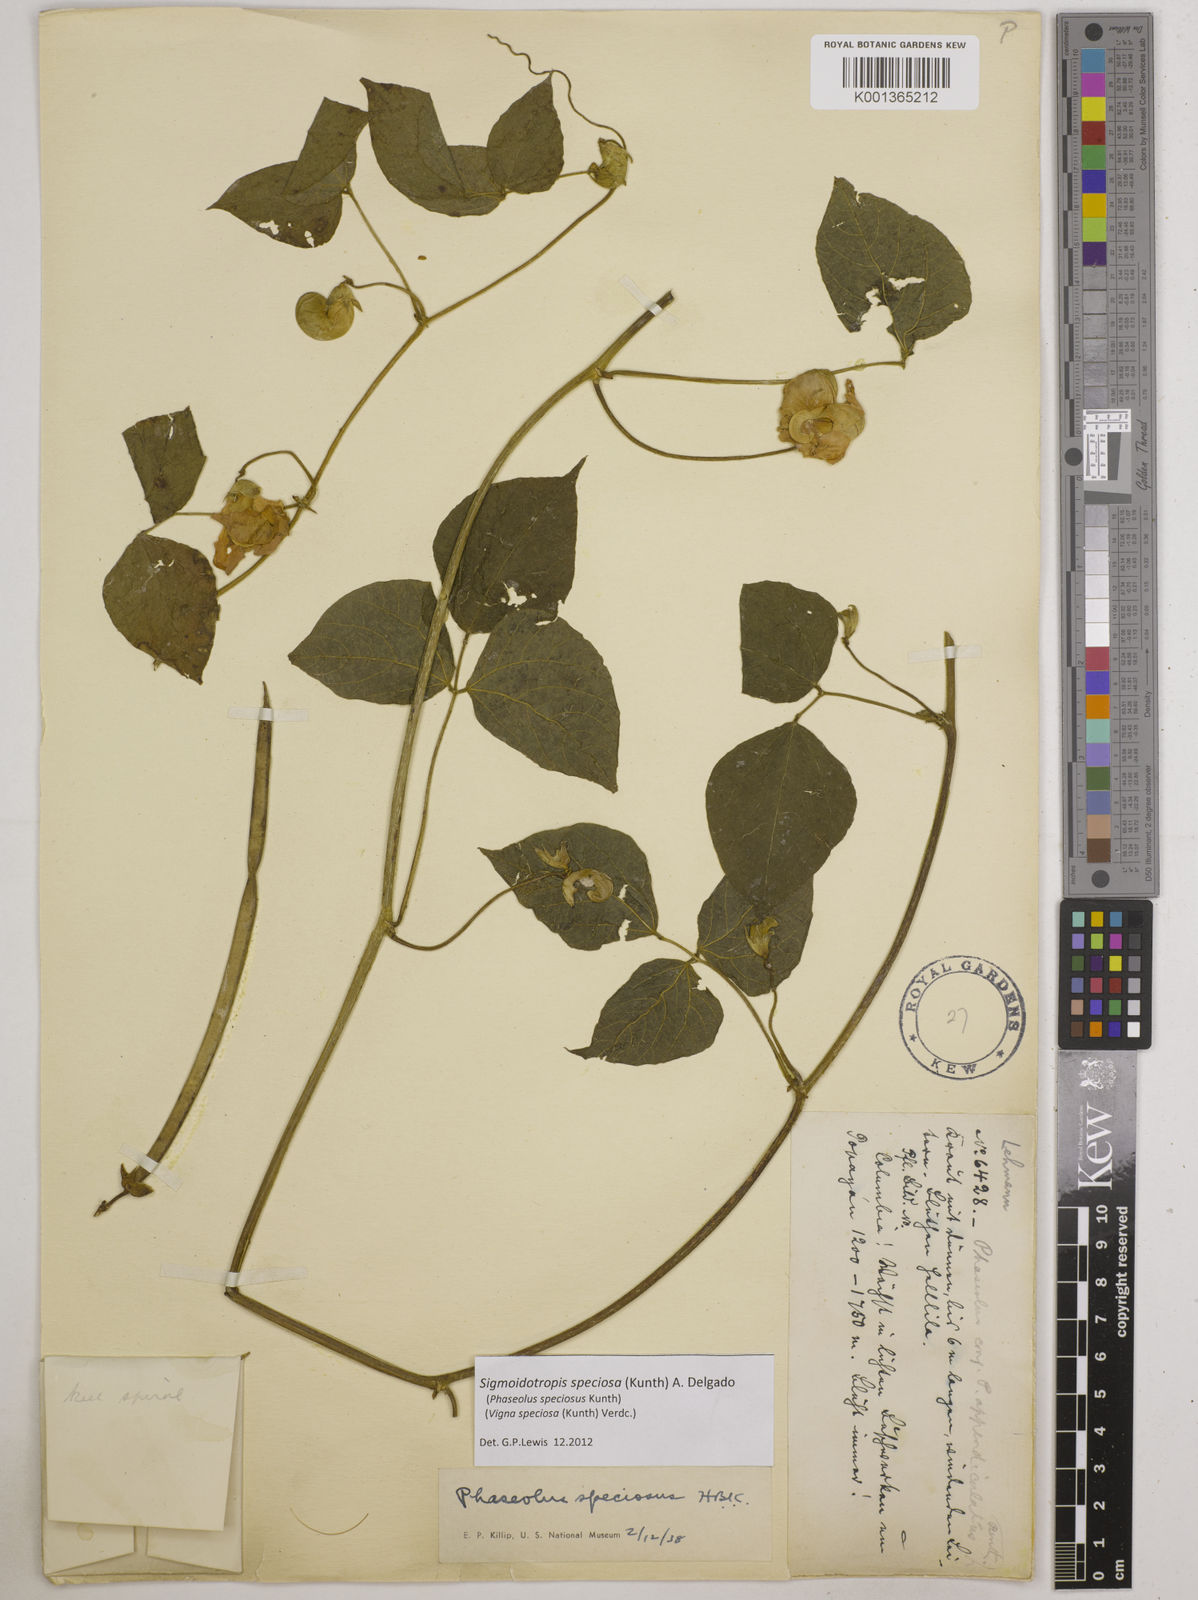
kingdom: Plantae
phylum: Tracheophyta
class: Magnoliopsida
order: Fabales
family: Fabaceae
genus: Sigmoidotropis
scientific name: Sigmoidotropis speciosa
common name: Snail flower
